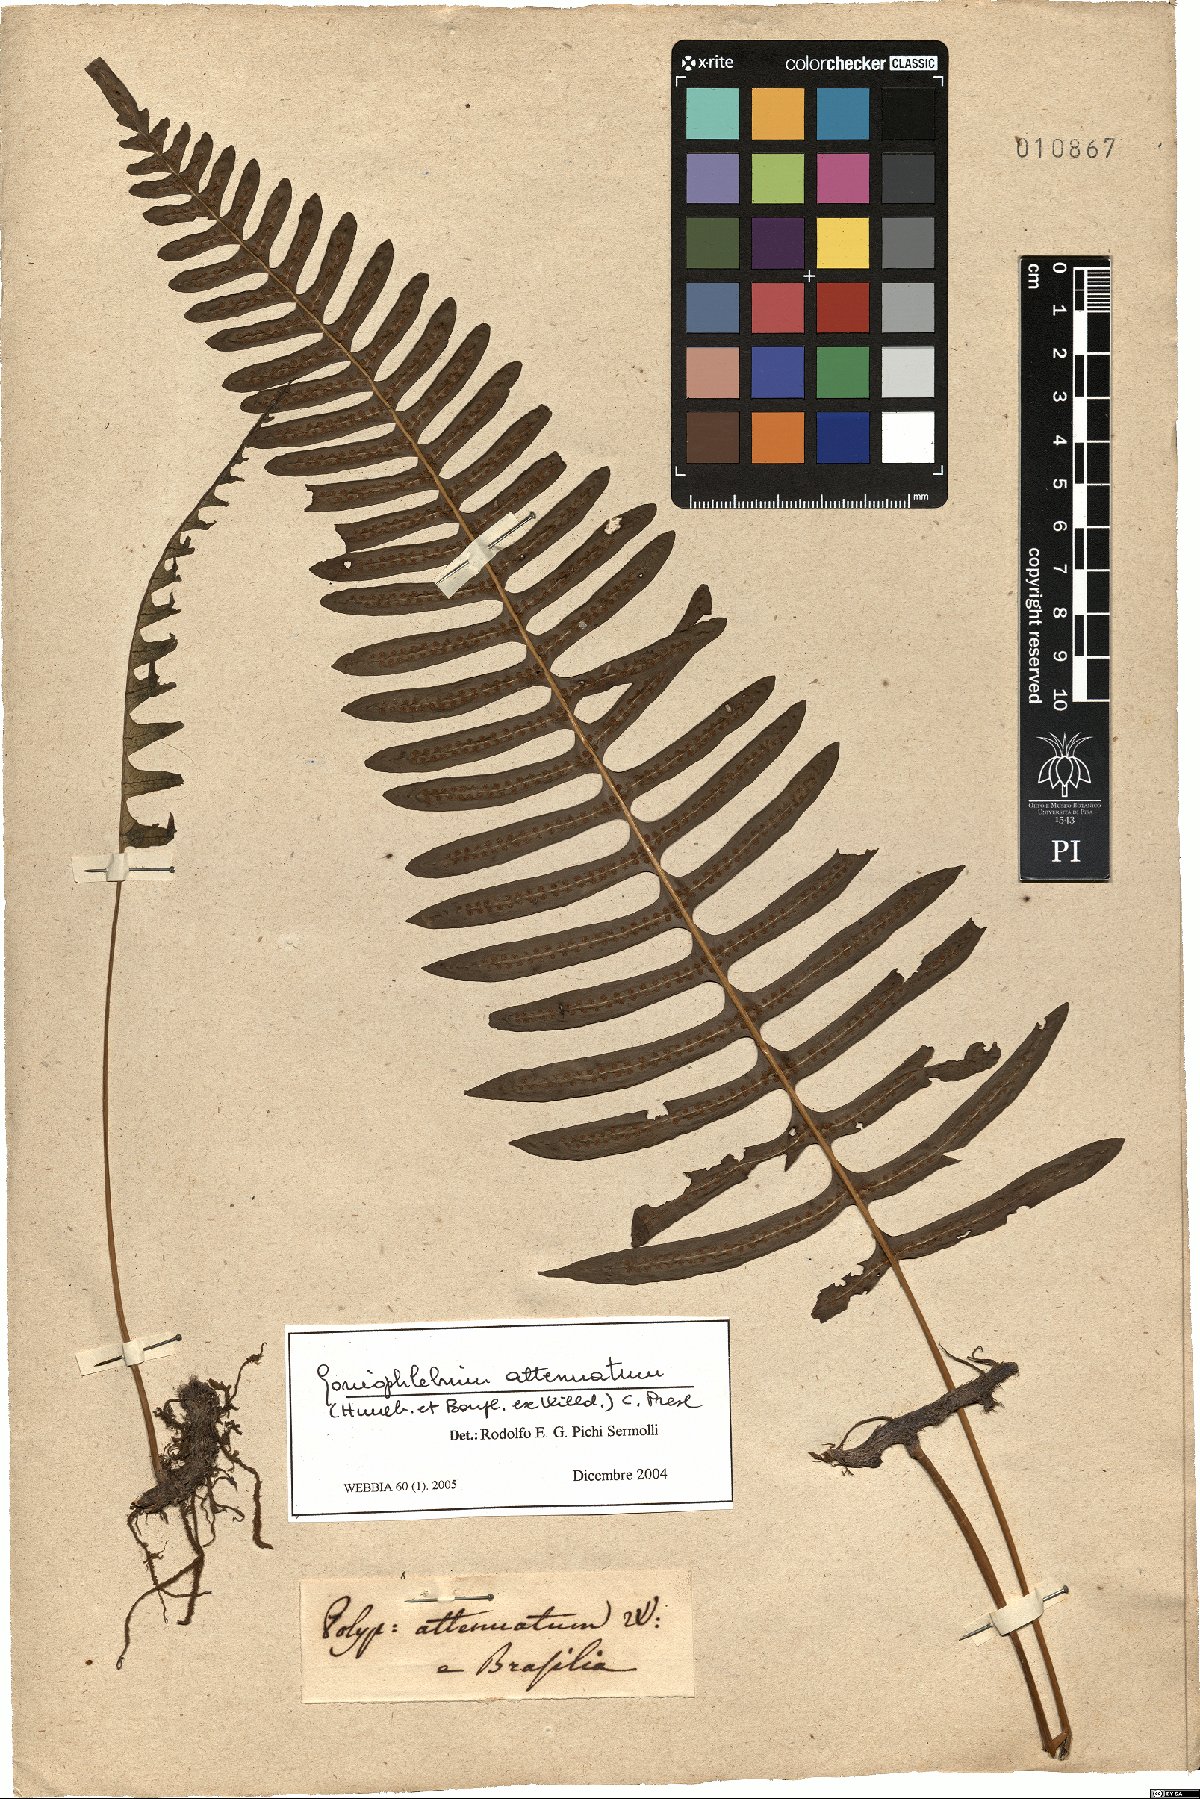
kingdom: Plantae
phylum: Tracheophyta
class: Polypodiopsida
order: Polypodiales
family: Polypodiaceae
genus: Serpocaulon
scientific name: Serpocaulon attenuatum
